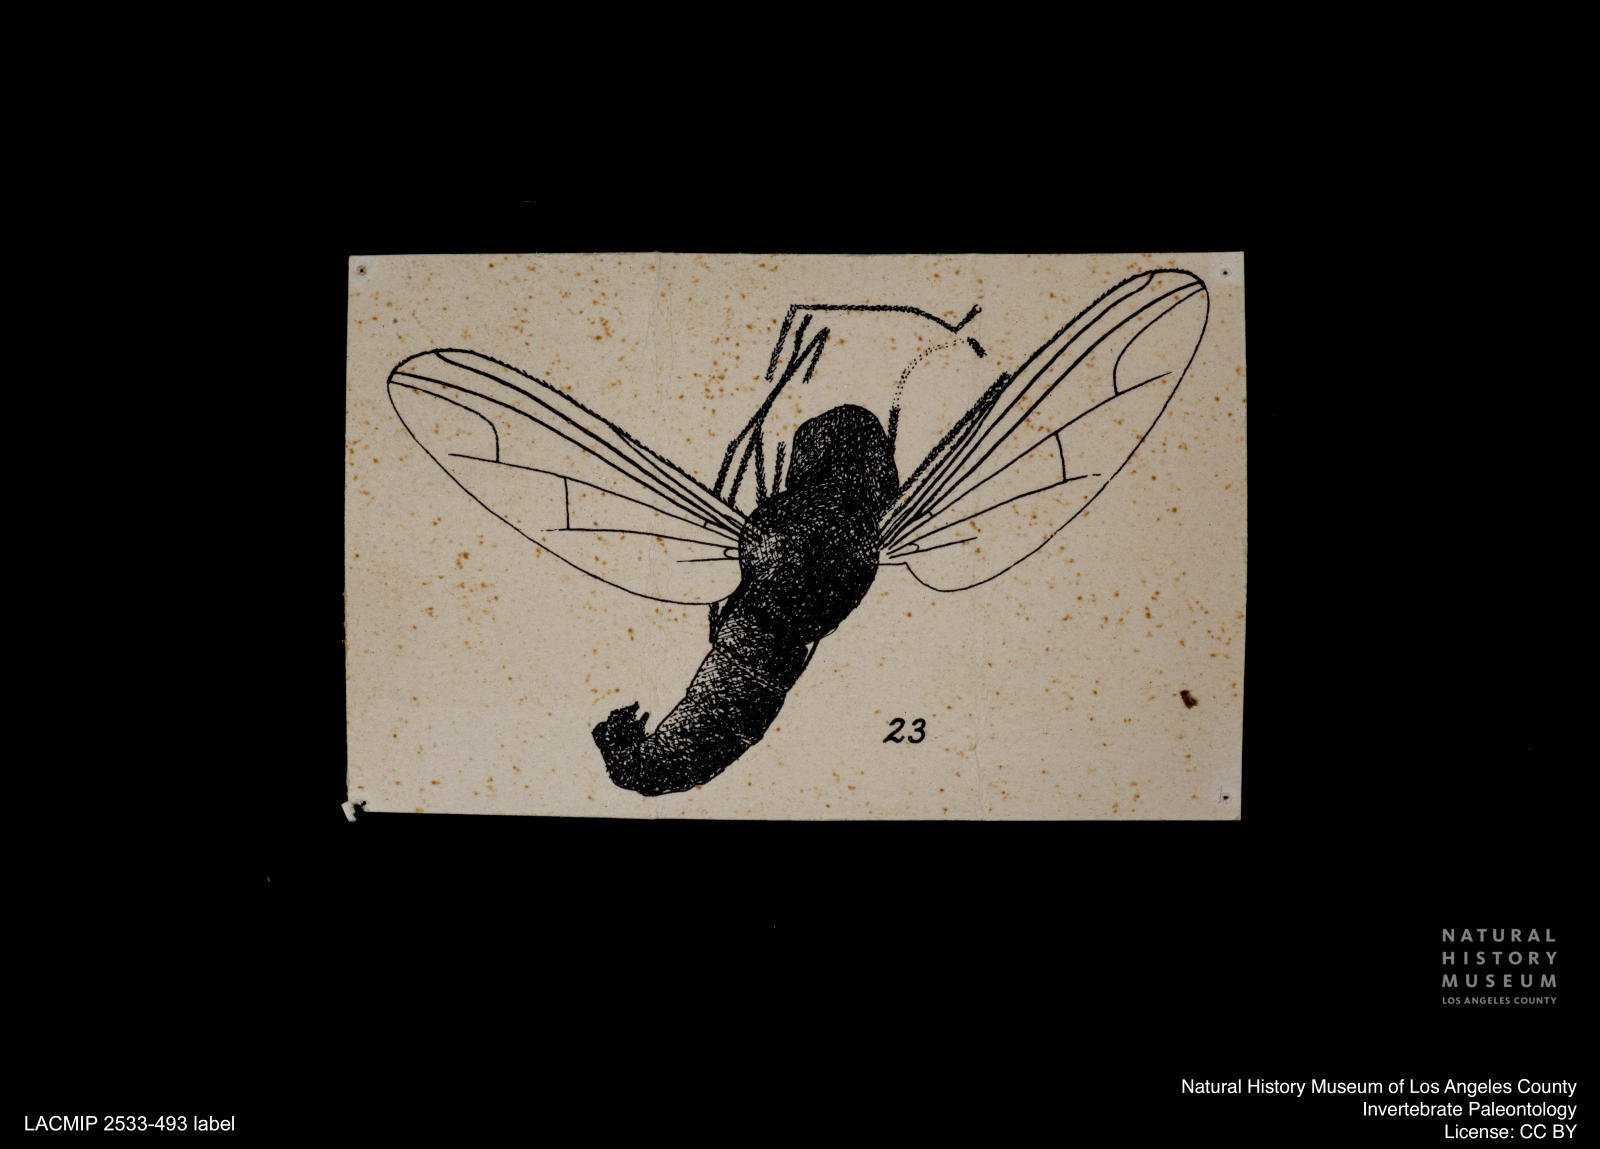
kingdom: Animalia
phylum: Arthropoda
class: Insecta
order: Diptera
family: Dolichopodidae
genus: Sciapus
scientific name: Sciapus erasmius
